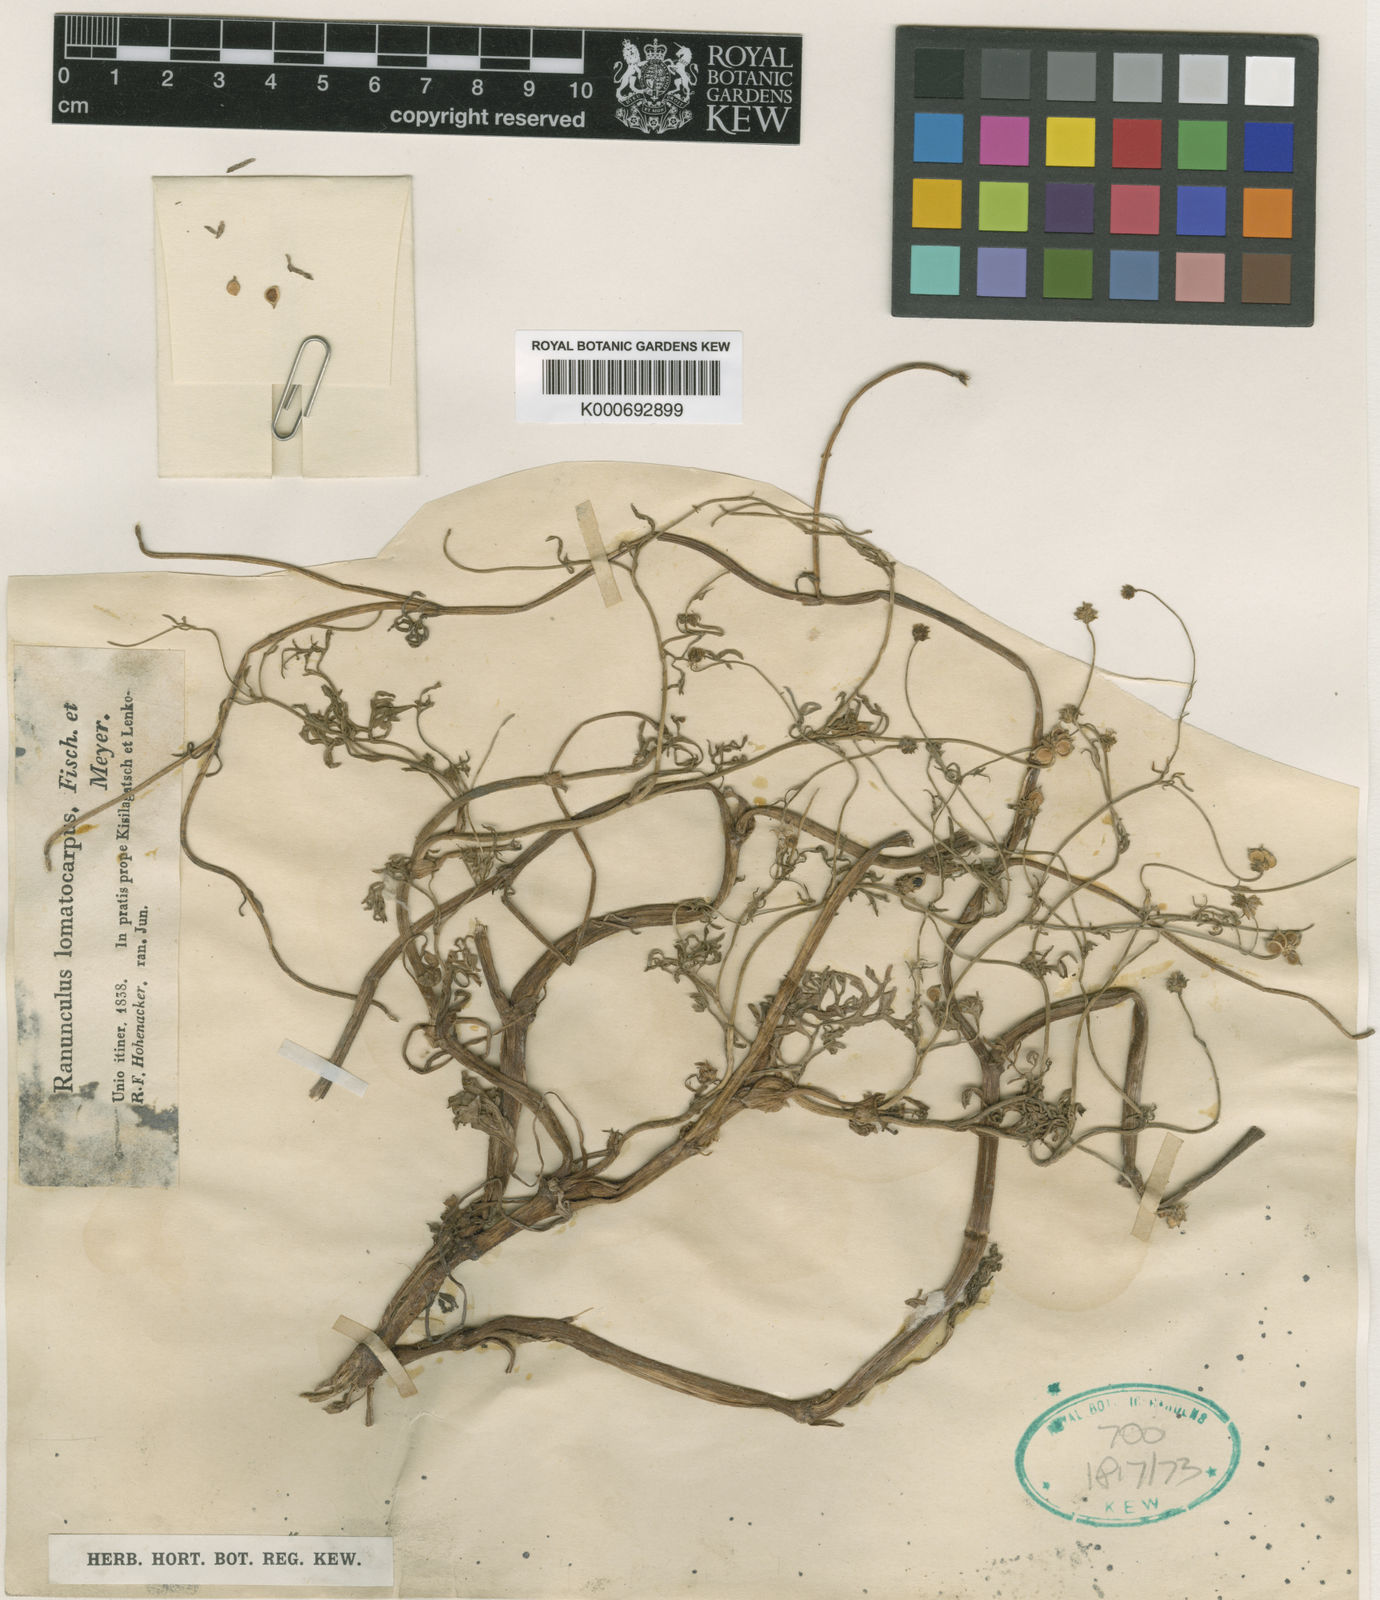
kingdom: Plantae
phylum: Tracheophyta
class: Magnoliopsida
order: Ranunculales
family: Ranunculaceae
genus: Ranunculus
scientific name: Ranunculus cornutus
